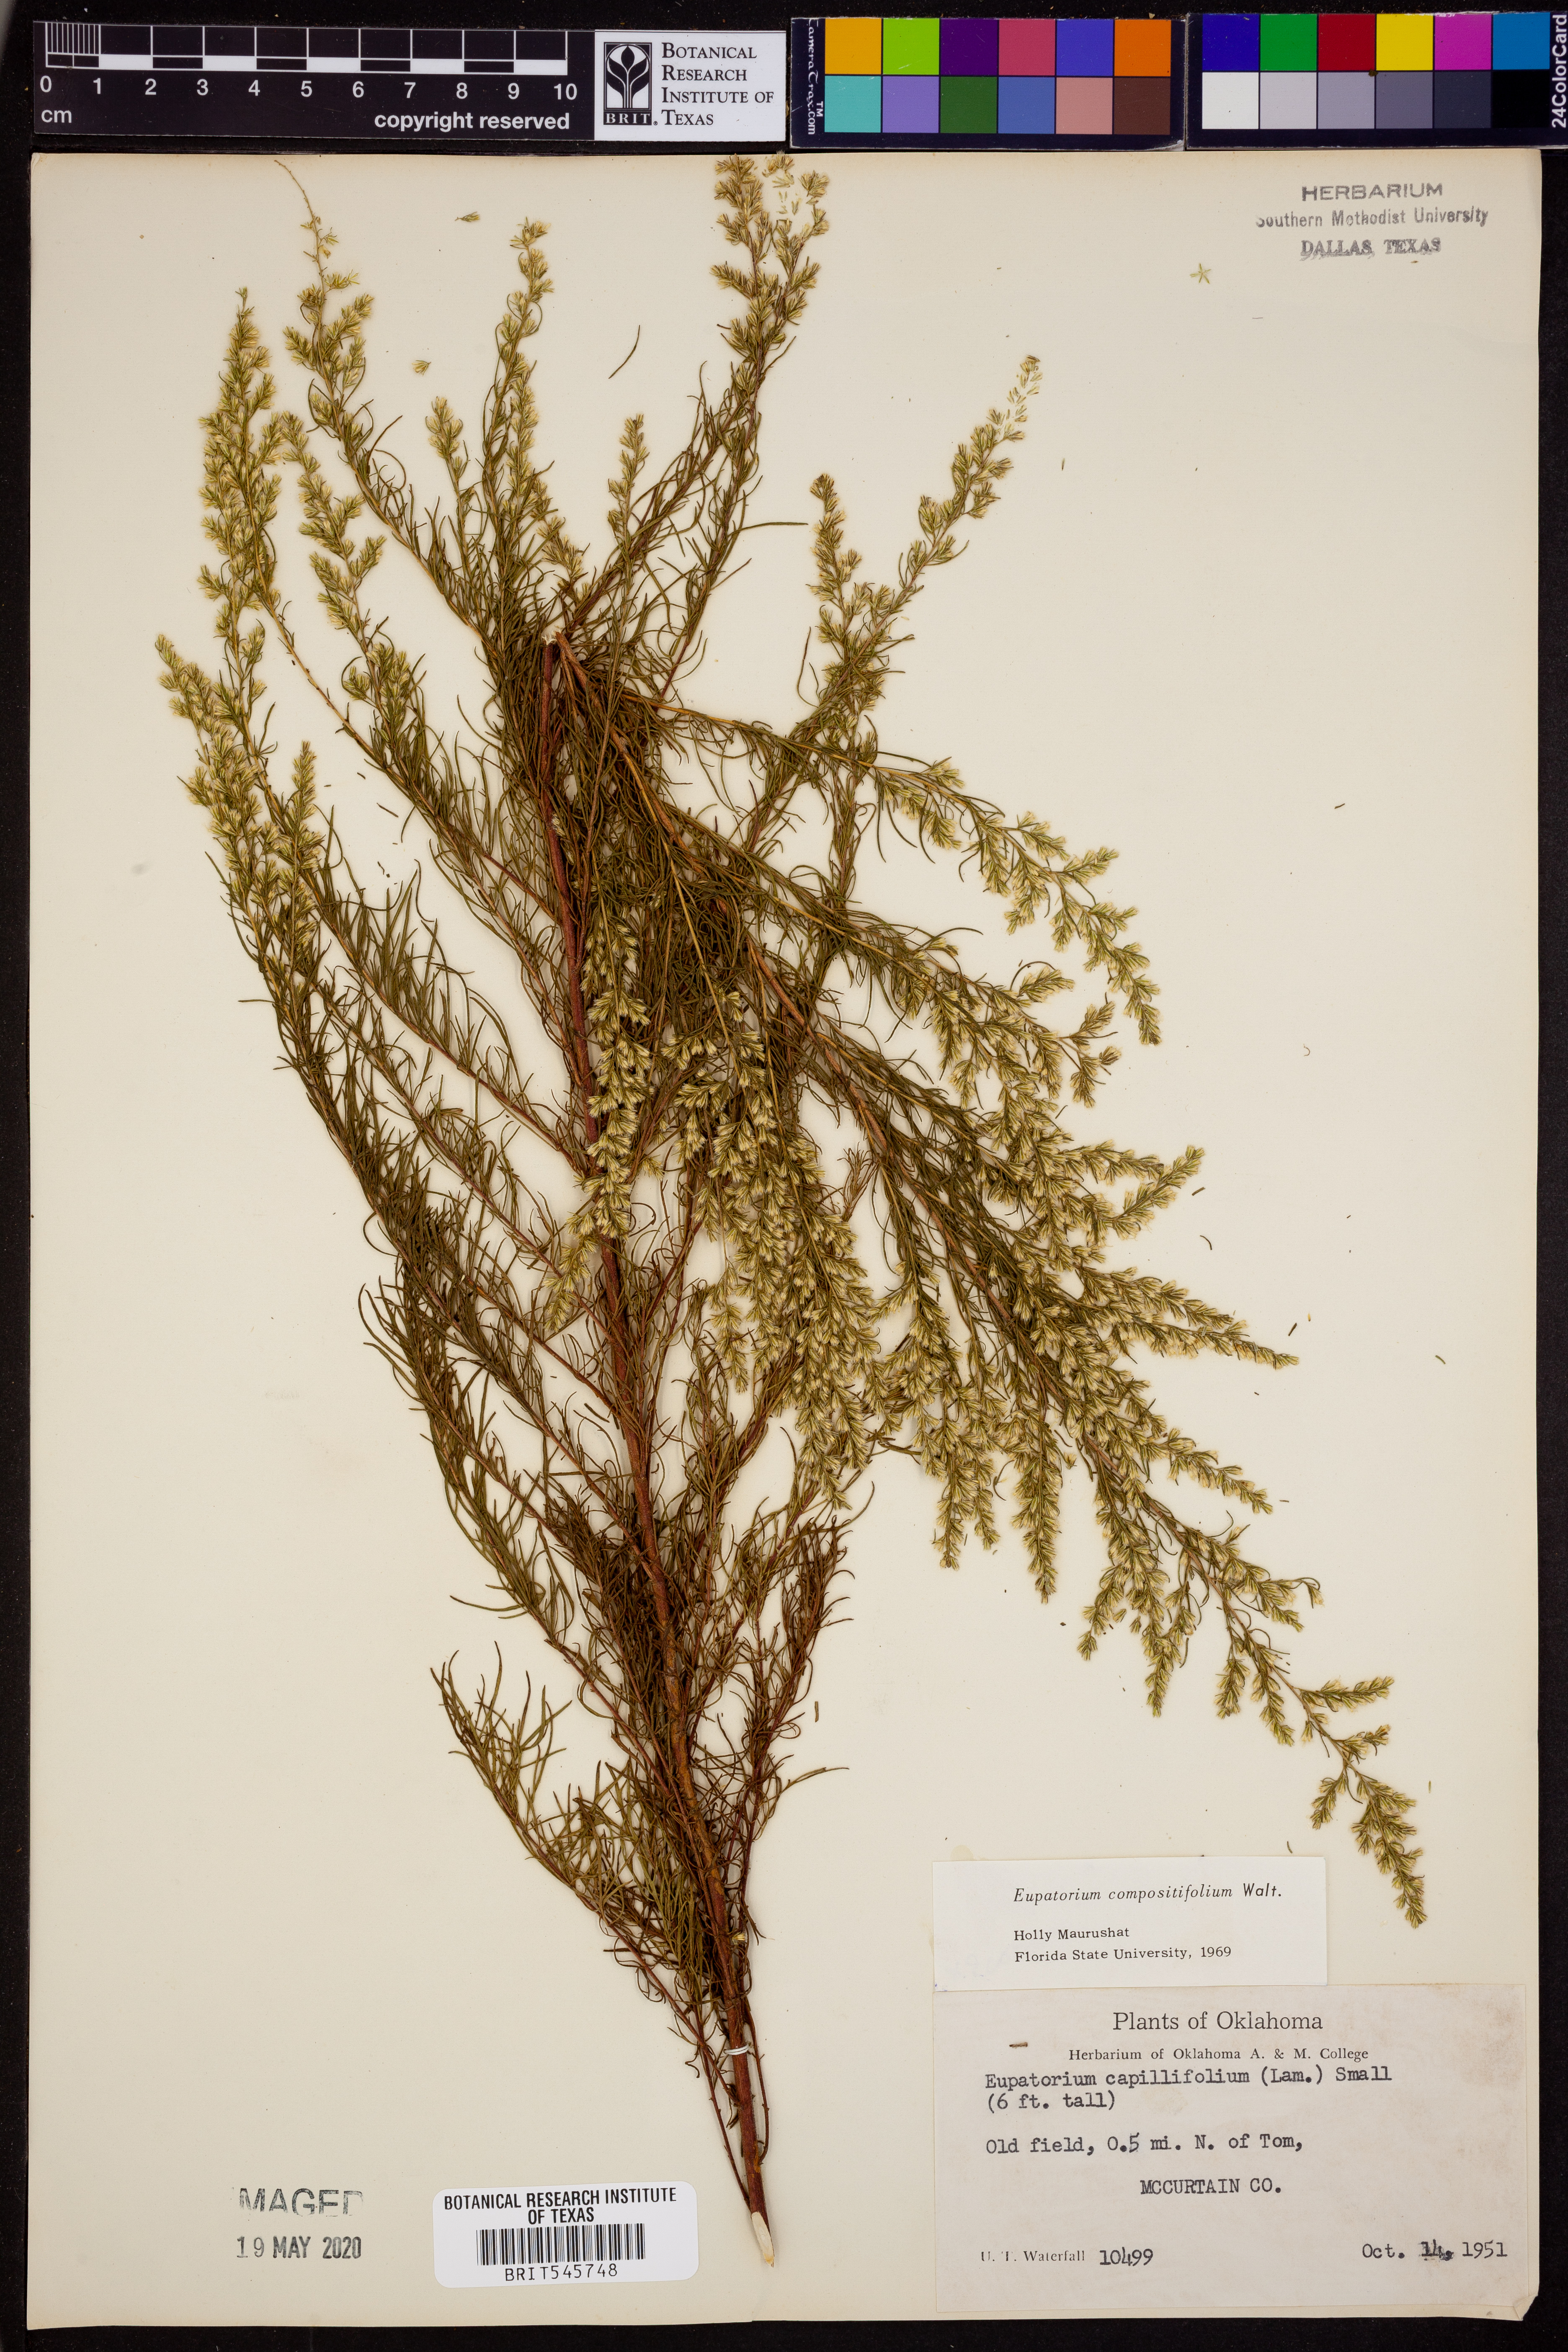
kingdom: Plantae
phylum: Tracheophyta
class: Magnoliopsida
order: Asterales
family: Asteraceae
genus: Eupatorium
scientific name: Eupatorium compositifolium
